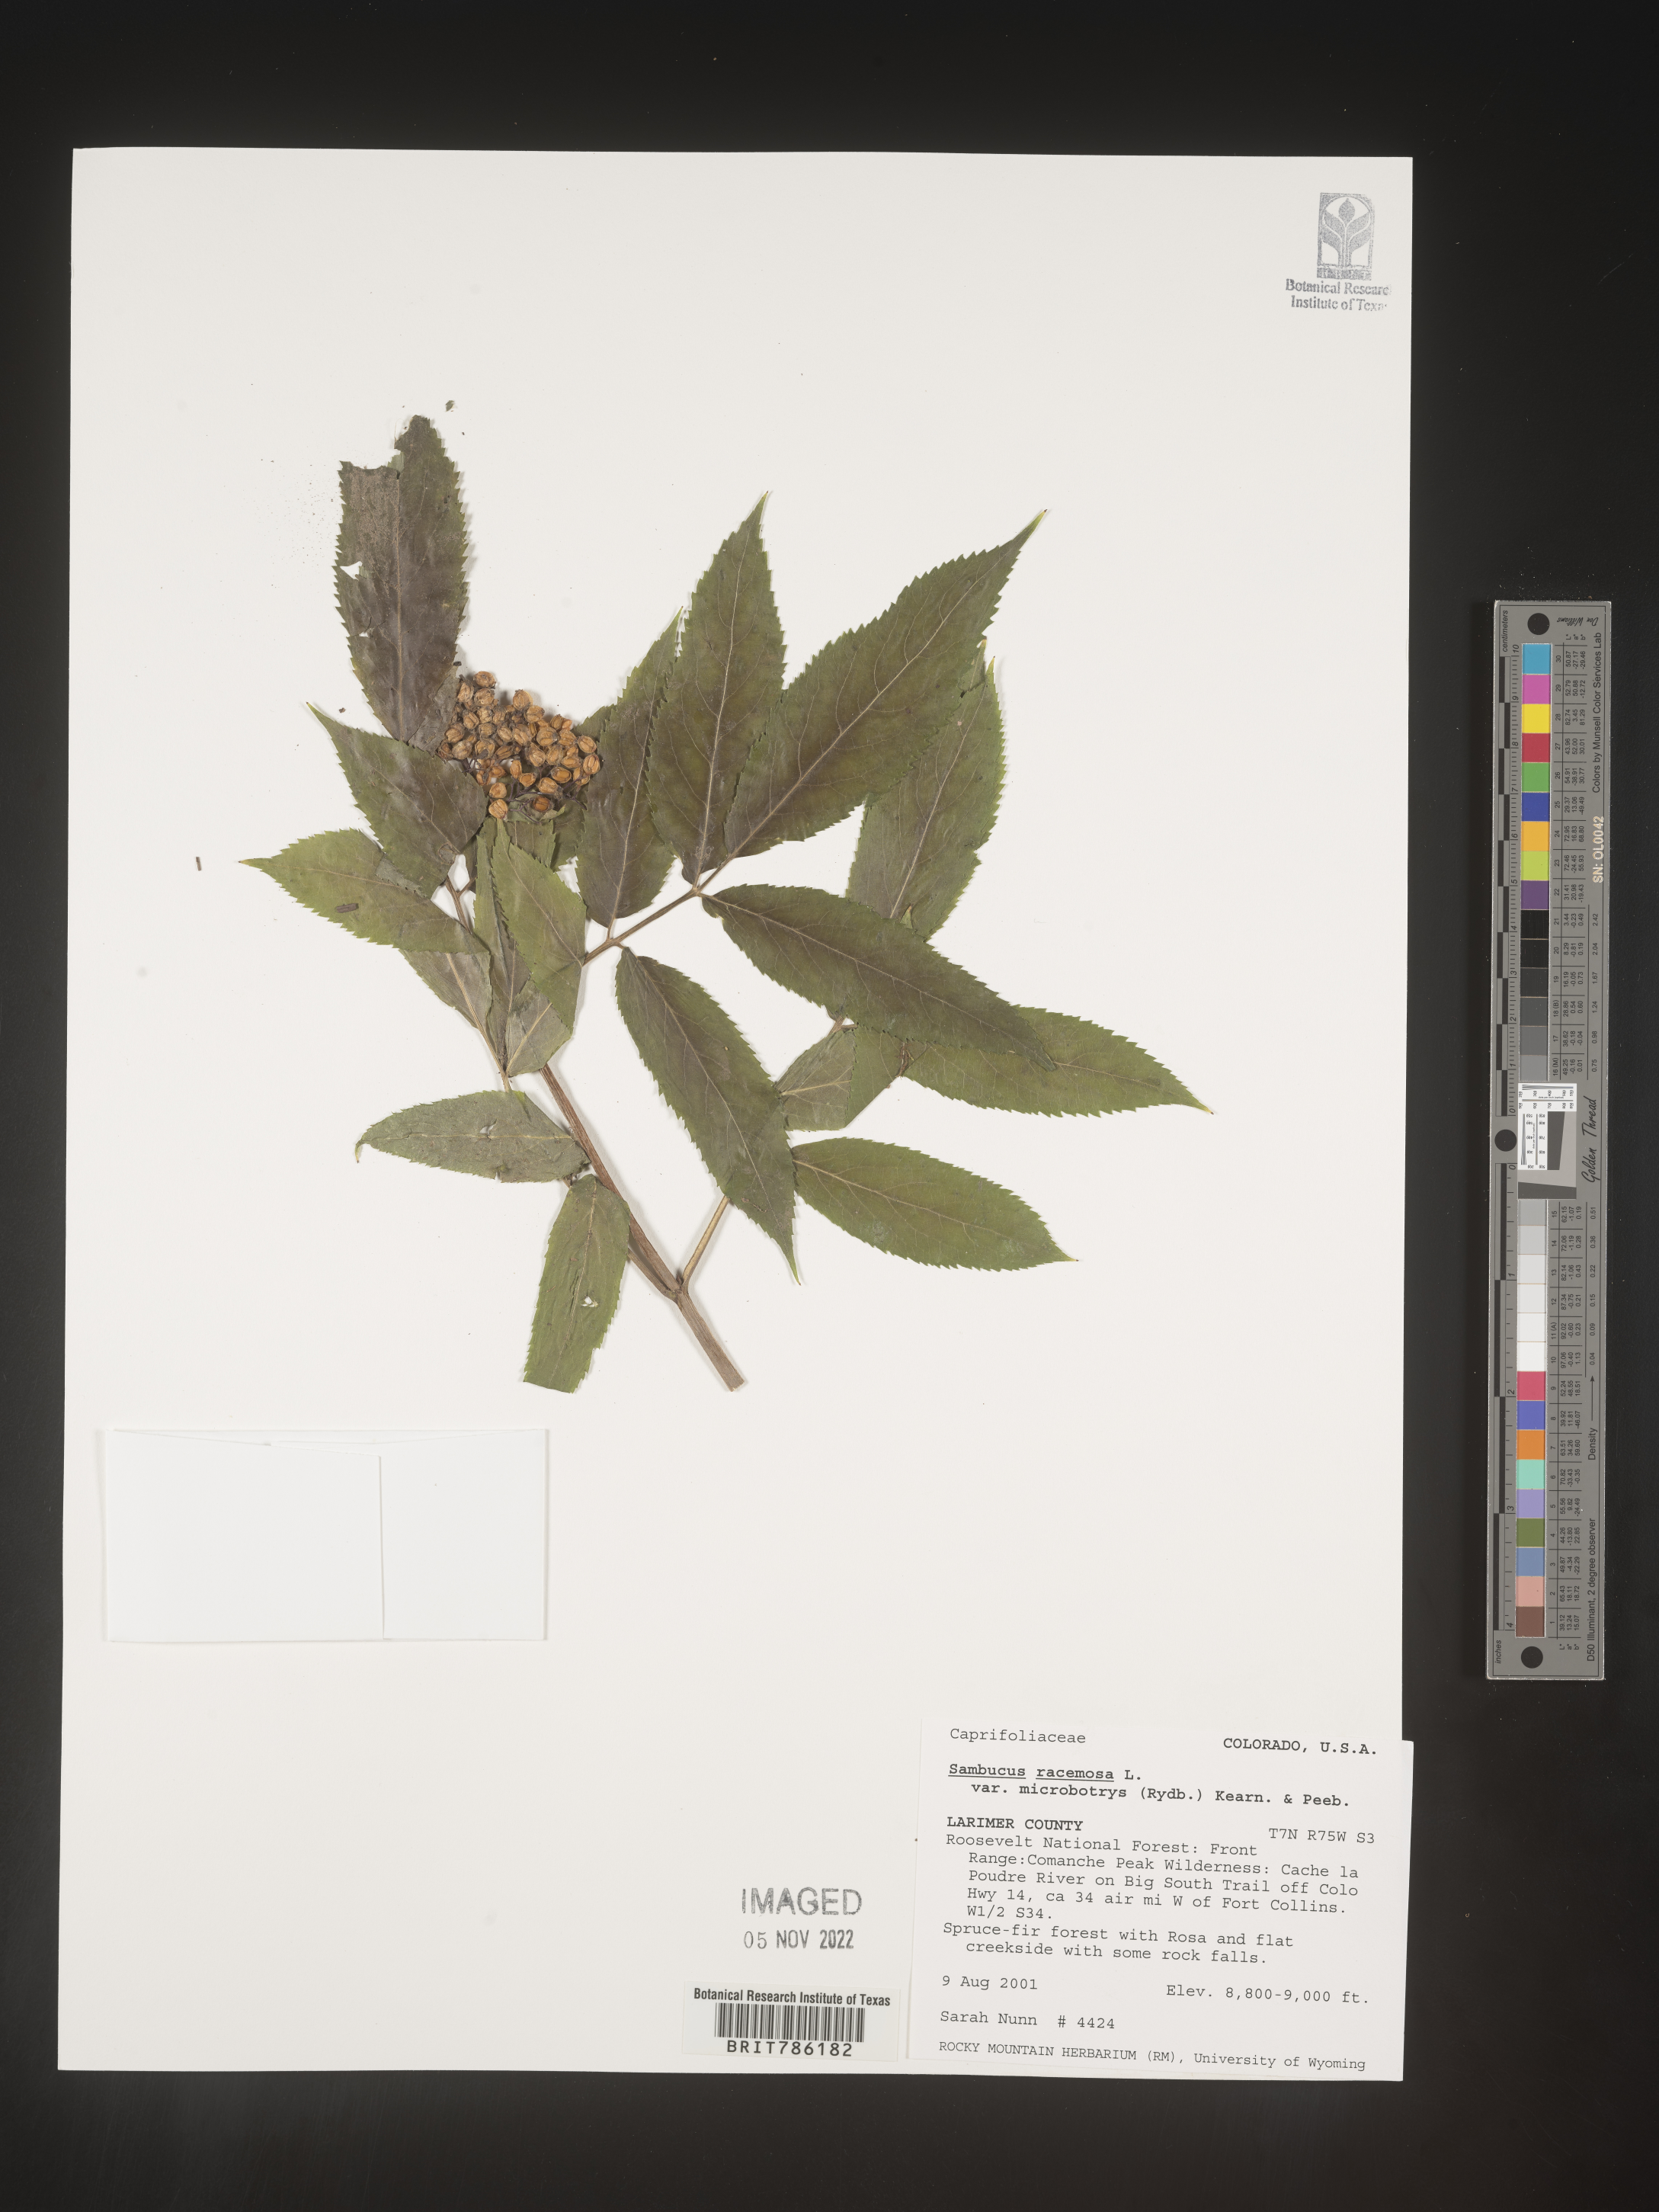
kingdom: Plantae
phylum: Tracheophyta
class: Magnoliopsida
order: Dipsacales
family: Viburnaceae
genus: Sambucus
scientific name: Sambucus
